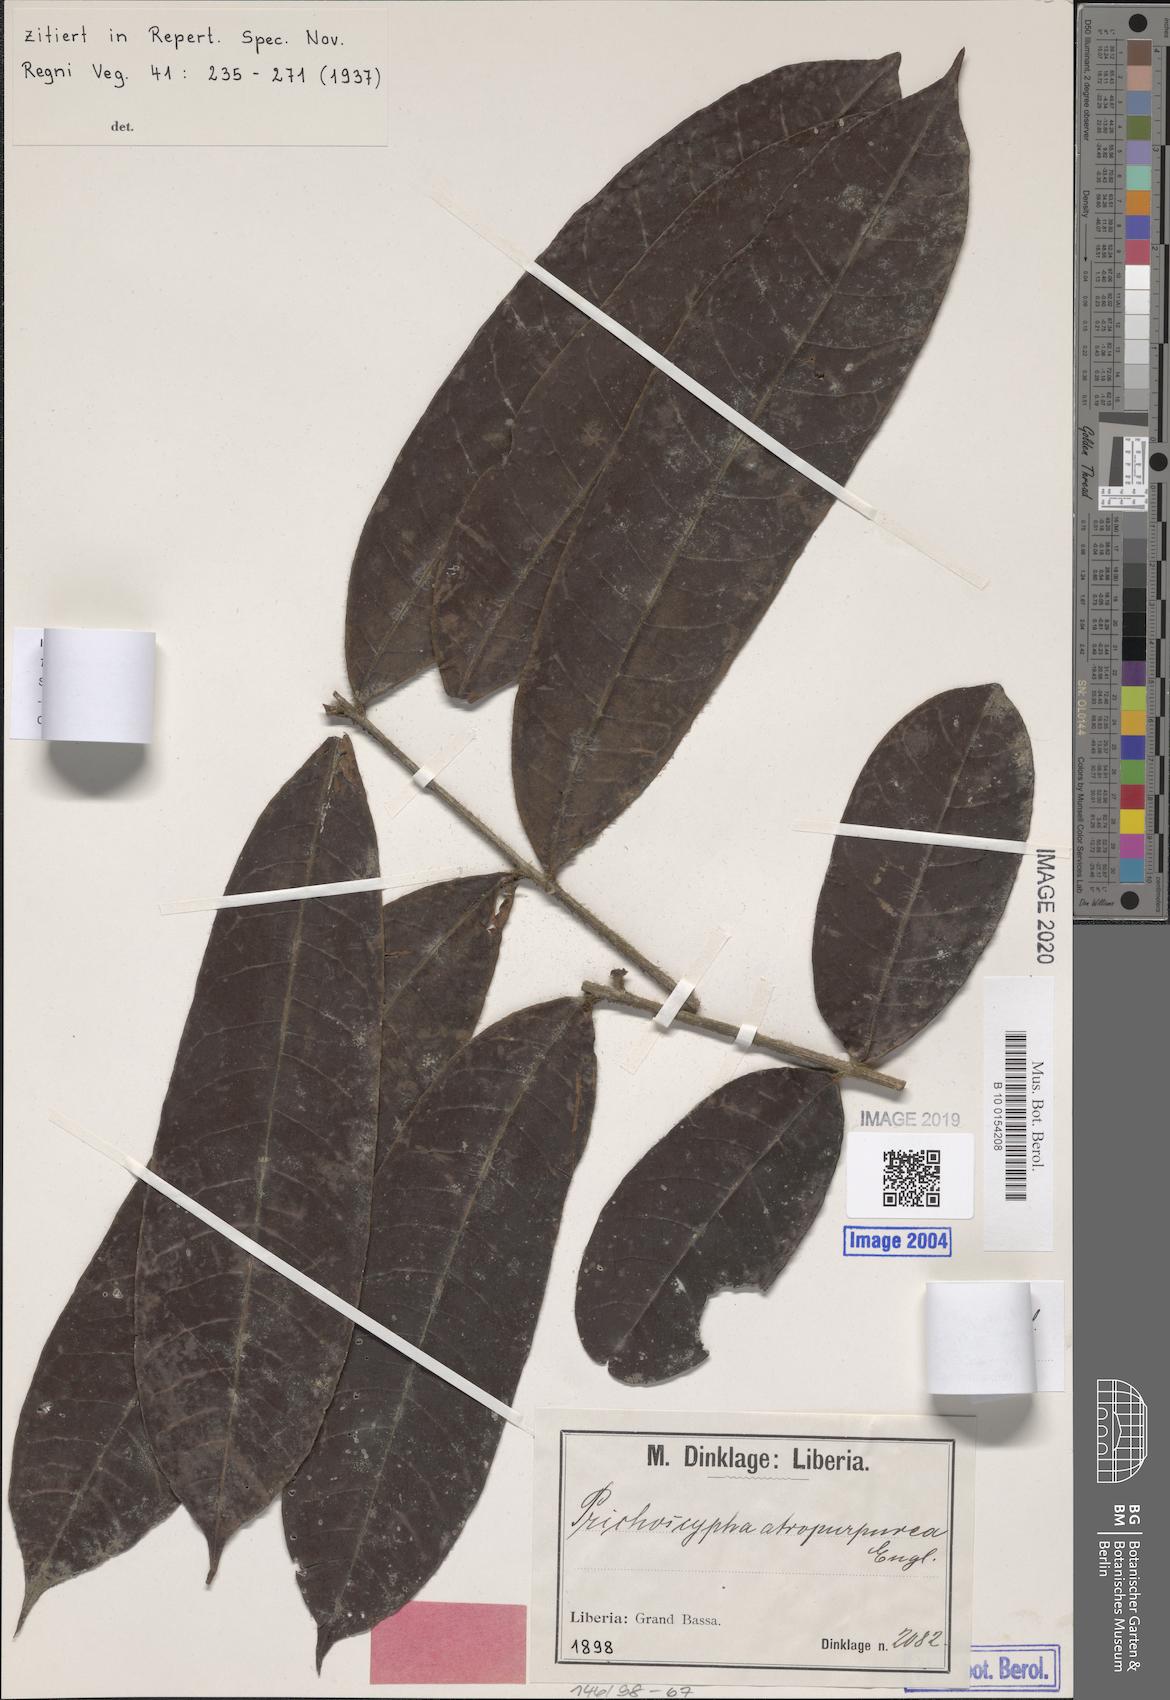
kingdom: Plantae
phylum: Tracheophyta
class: Magnoliopsida
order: Sapindales
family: Anacardiaceae
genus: Trichoscypha
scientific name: Trichoscypha mannii
